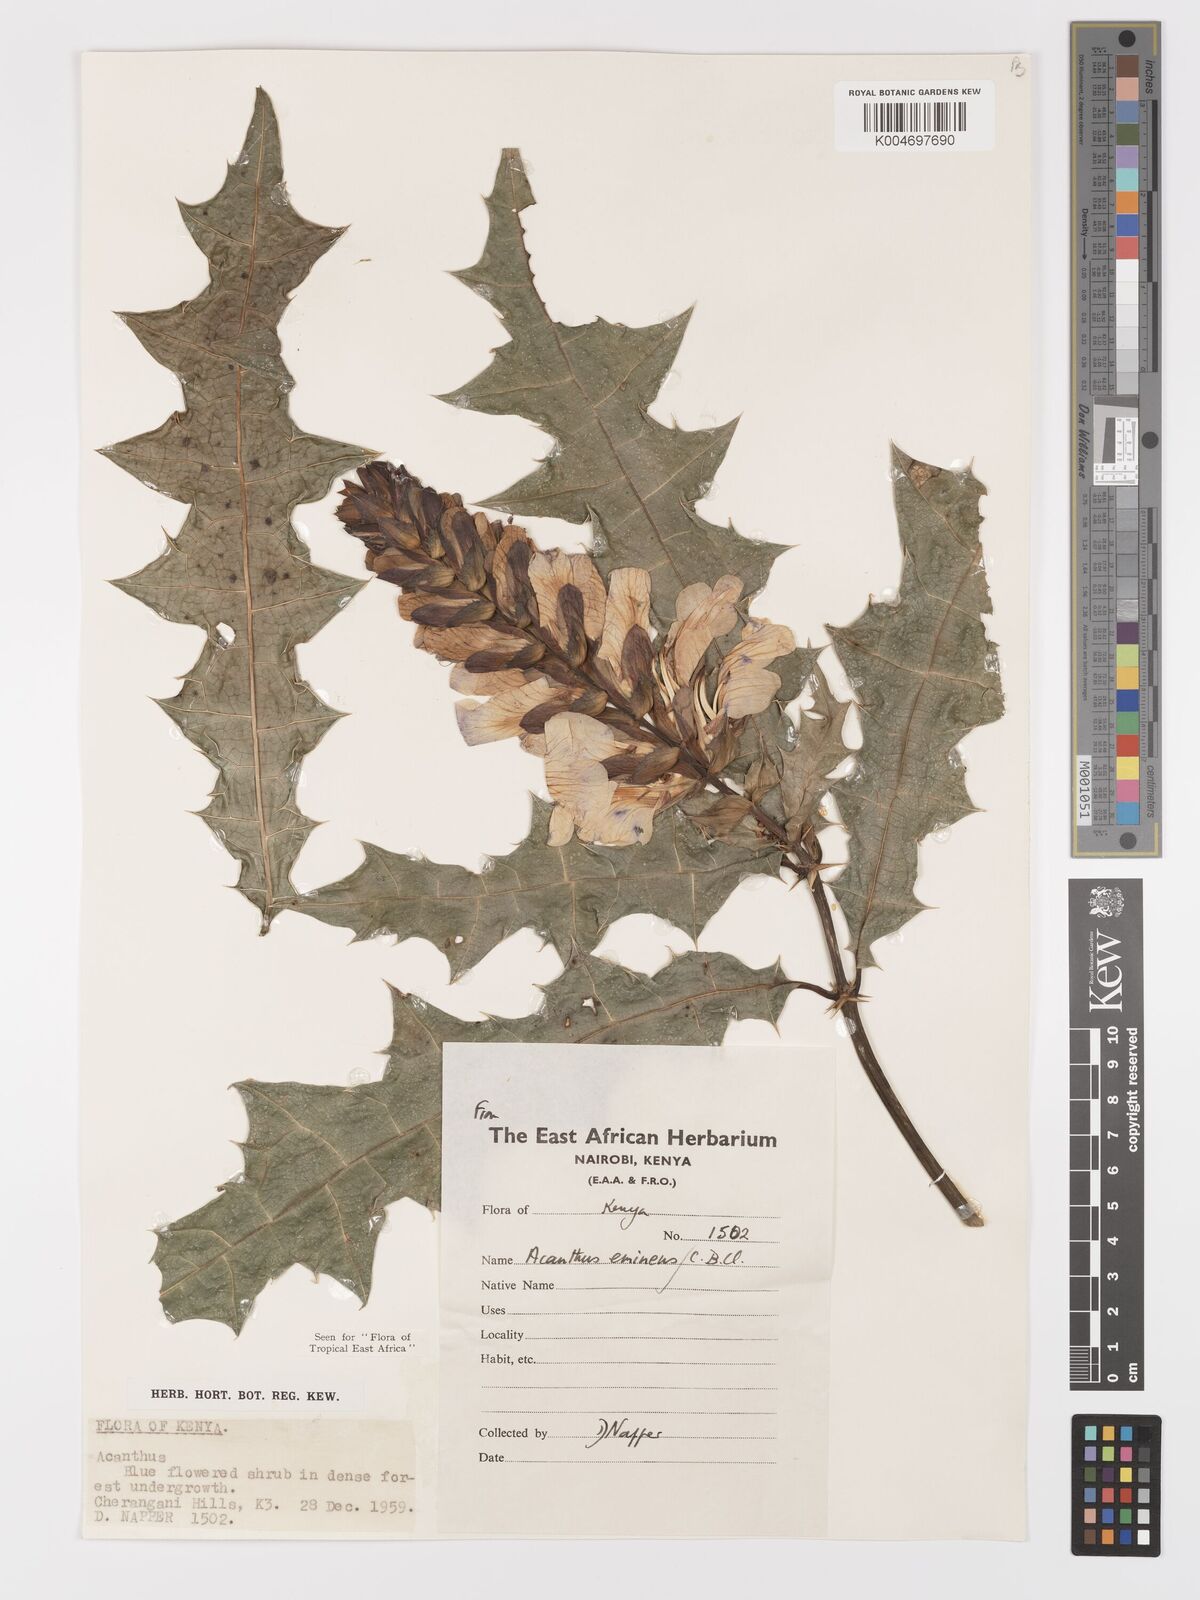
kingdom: Plantae
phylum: Tracheophyta
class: Magnoliopsida
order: Lamiales
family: Acanthaceae
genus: Acanthus
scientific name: Acanthus eminens
